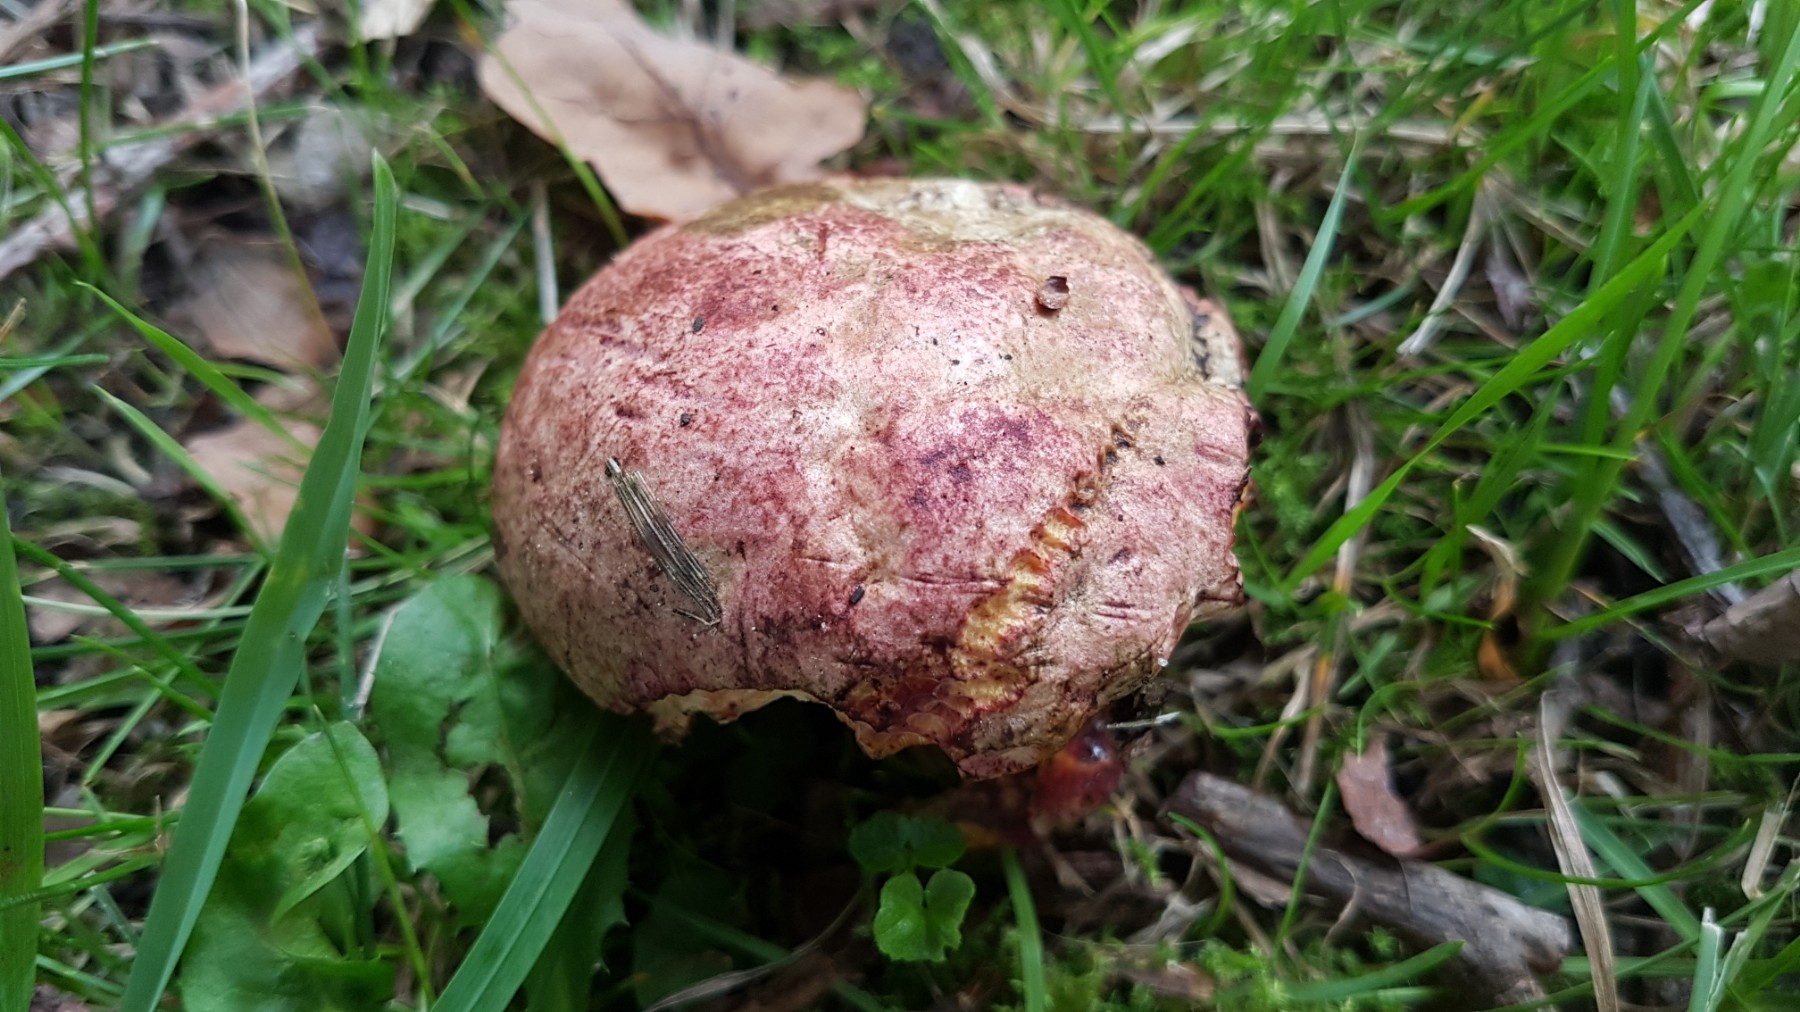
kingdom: Fungi
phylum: Basidiomycota
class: Agaricomycetes
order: Boletales
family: Boletaceae
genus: Rubroboletus
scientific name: Rubroboletus legaliae
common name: djævle-rørhat
